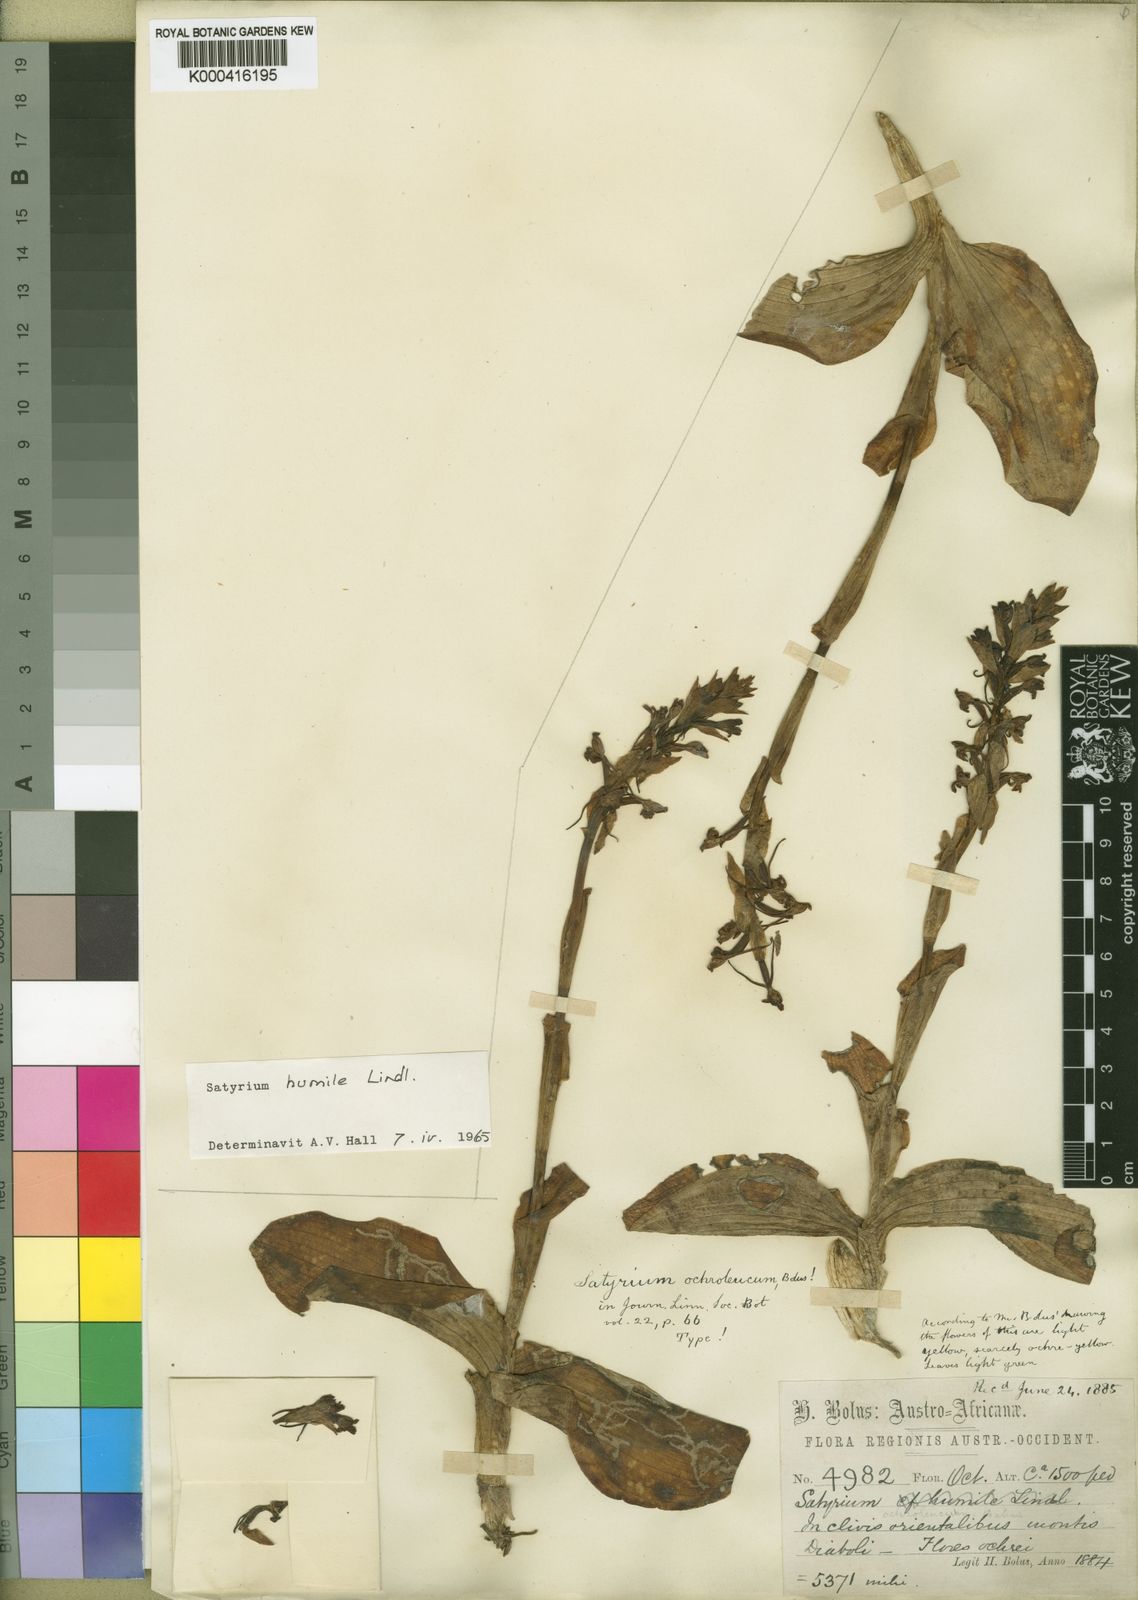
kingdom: Plantae
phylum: Tracheophyta
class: Liliopsida
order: Asparagales
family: Orchidaceae
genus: Satyrium
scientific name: Satyrium humile
